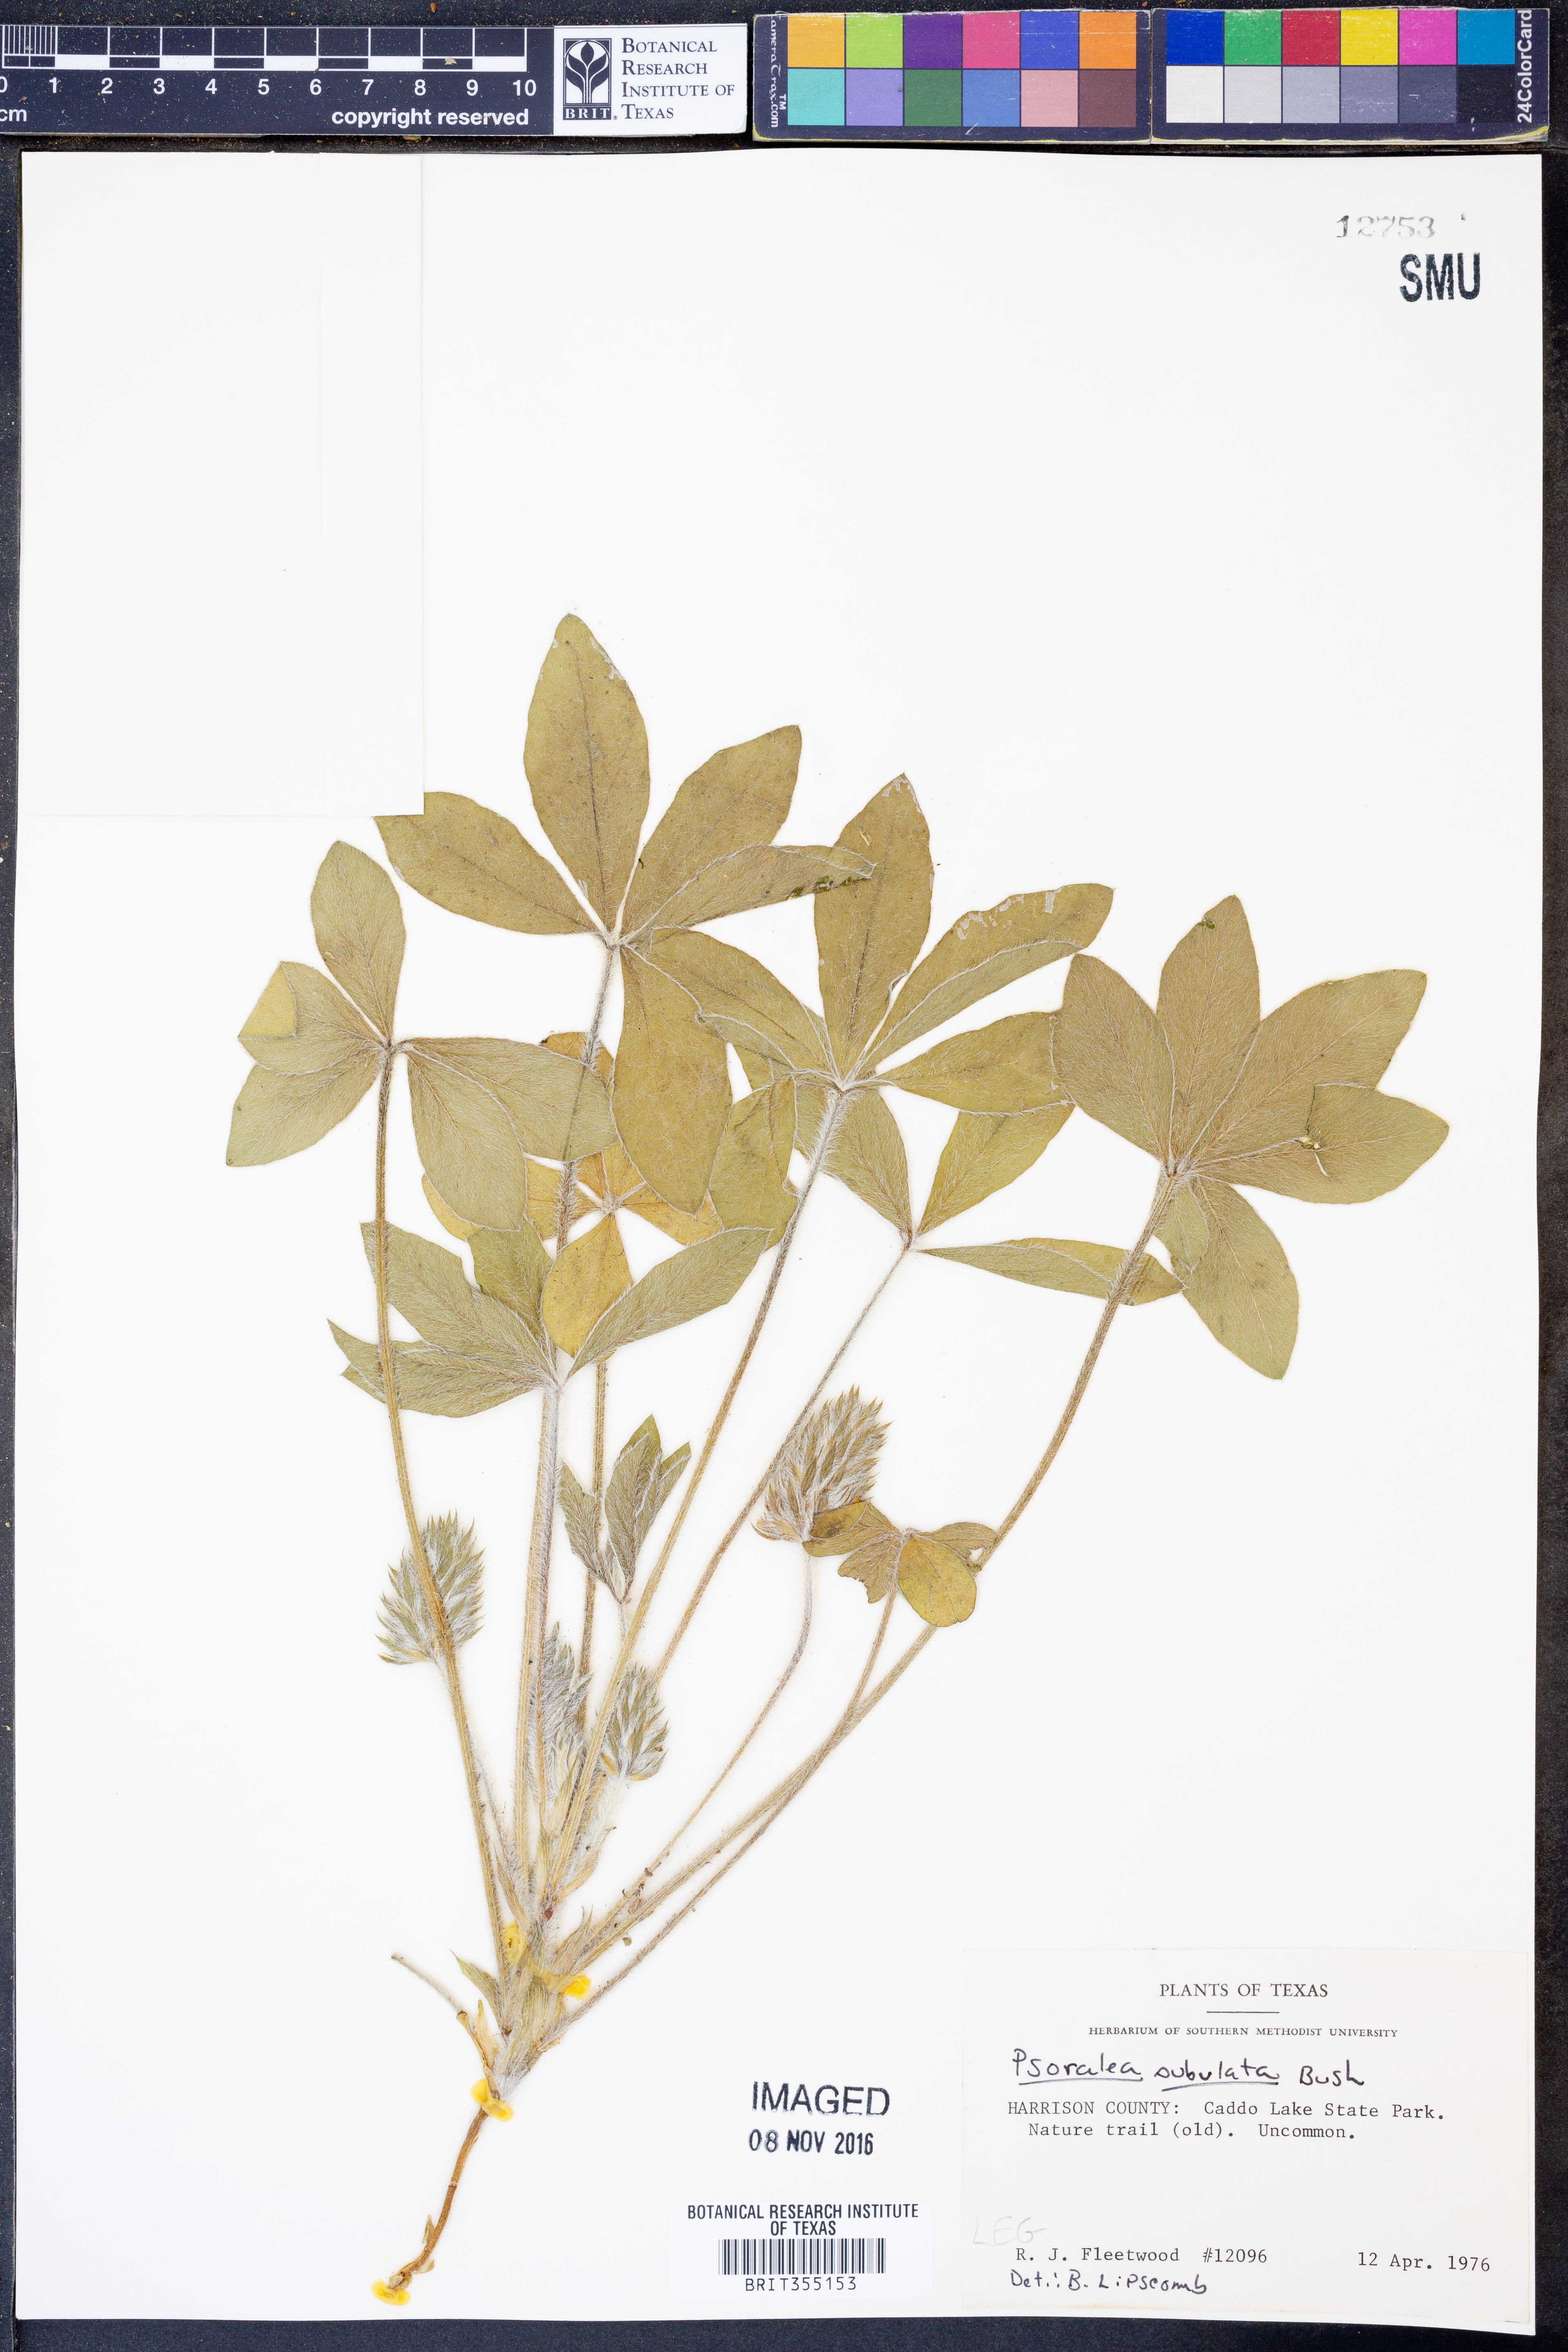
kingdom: Plantae
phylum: Tracheophyta
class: Magnoliopsida
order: Fabales
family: Fabaceae
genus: Pediomelum
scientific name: Pediomelum hypogaeum
